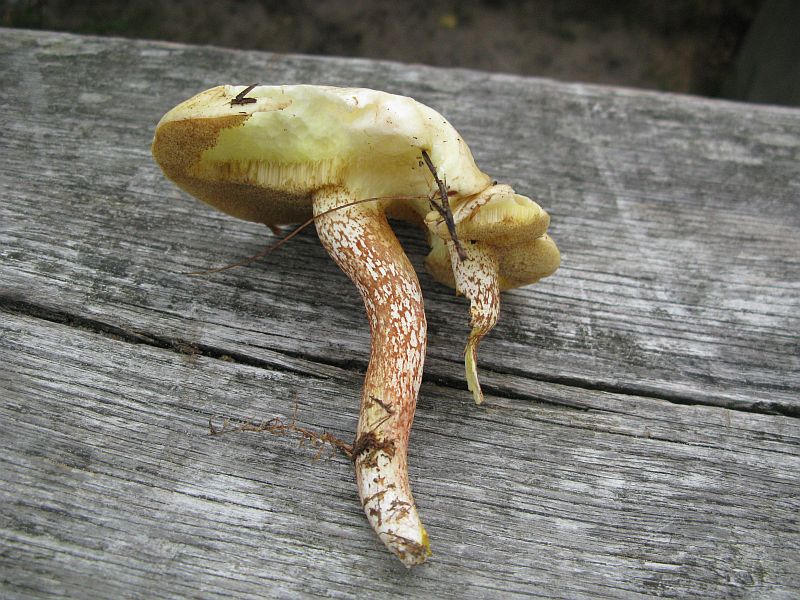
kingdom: Fungi
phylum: Basidiomycota
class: Agaricomycetes
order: Boletales
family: Suillaceae
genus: Suillus
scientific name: Suillus placidus
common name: elfenbens-slimrørhat
